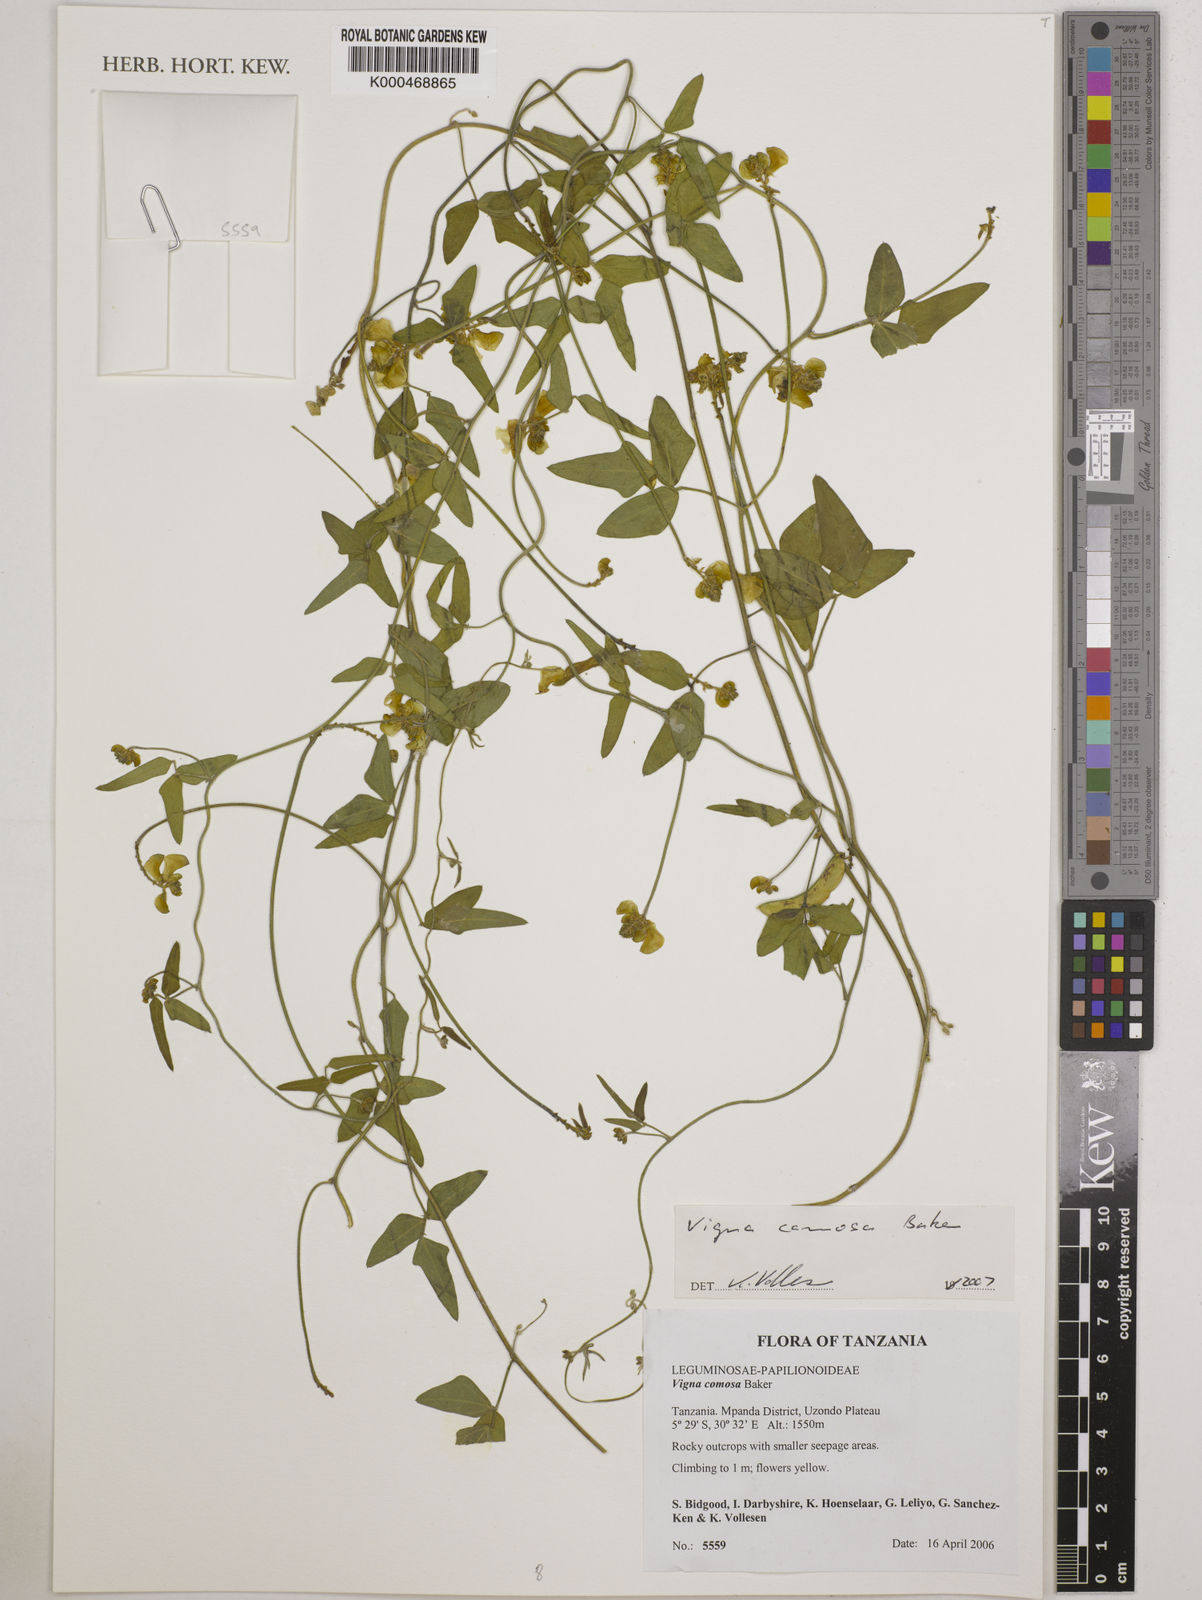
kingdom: Plantae
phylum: Tracheophyta
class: Magnoliopsida
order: Fabales
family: Fabaceae
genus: Vigna
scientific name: Vigna comosa
